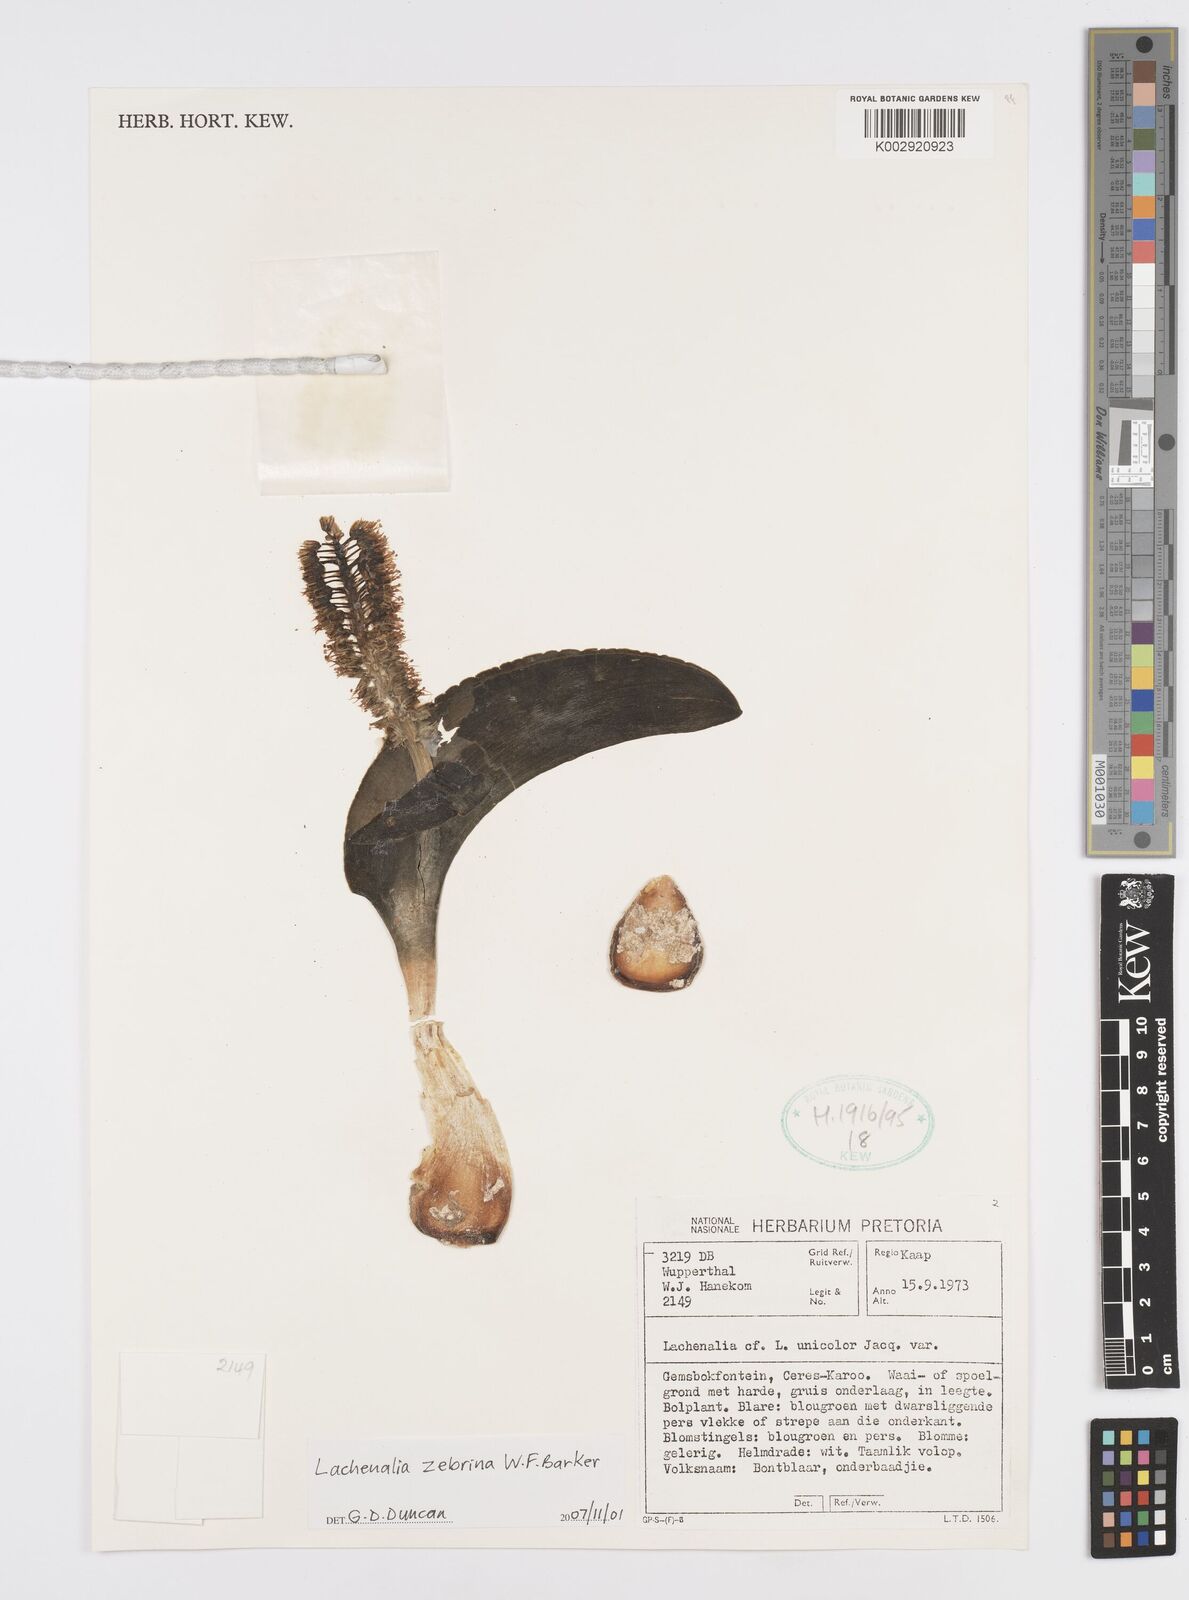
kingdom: Plantae
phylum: Tracheophyta
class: Liliopsida
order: Asparagales
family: Asparagaceae
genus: Lachenalia
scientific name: Lachenalia zebrina
